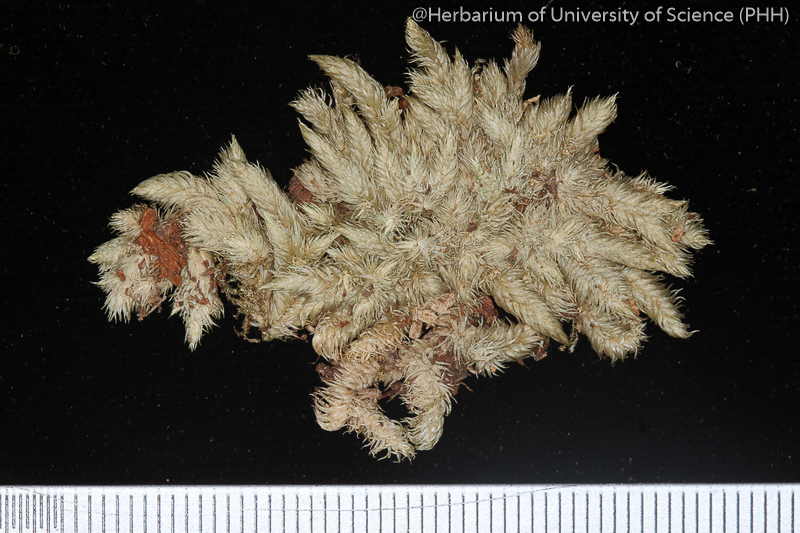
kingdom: Plantae
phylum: Bryophyta
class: Bryopsida
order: Dicranales
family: Leucobryaceae
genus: Leucobryum
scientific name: Leucobryum aduncum
